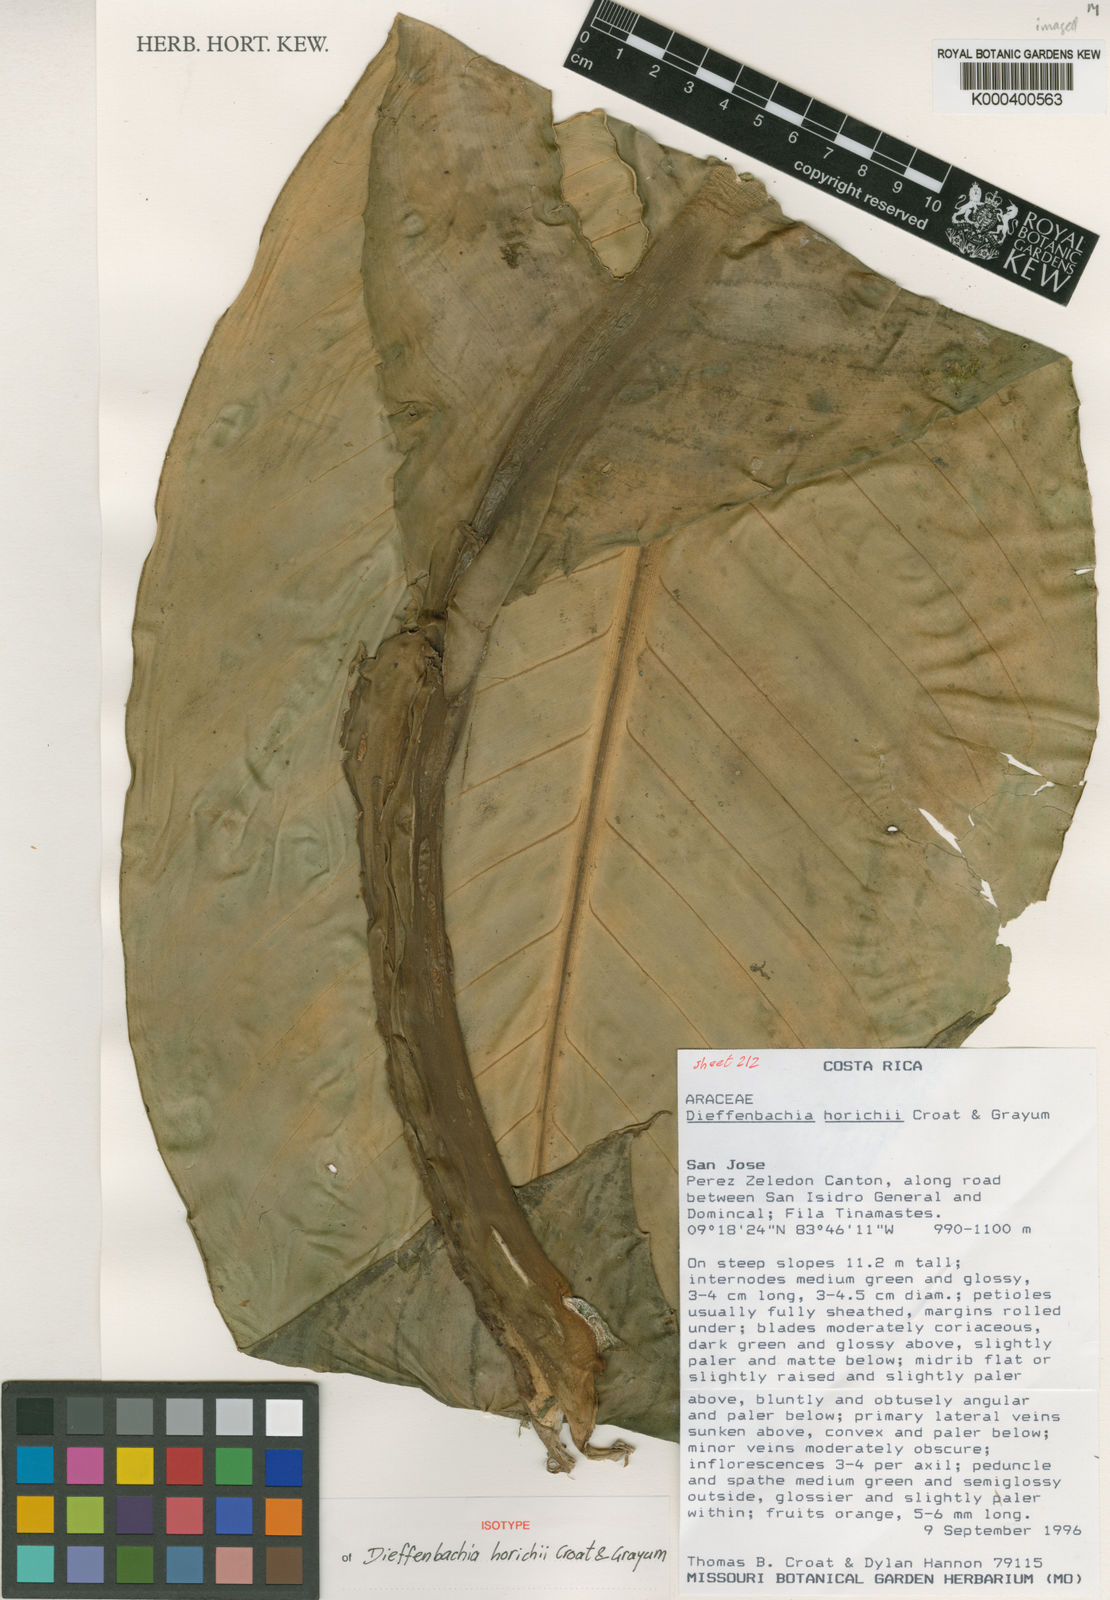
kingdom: Plantae
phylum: Tracheophyta
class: Liliopsida
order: Alismatales
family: Araceae
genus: Dieffenbachia
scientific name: Dieffenbachia horichii
